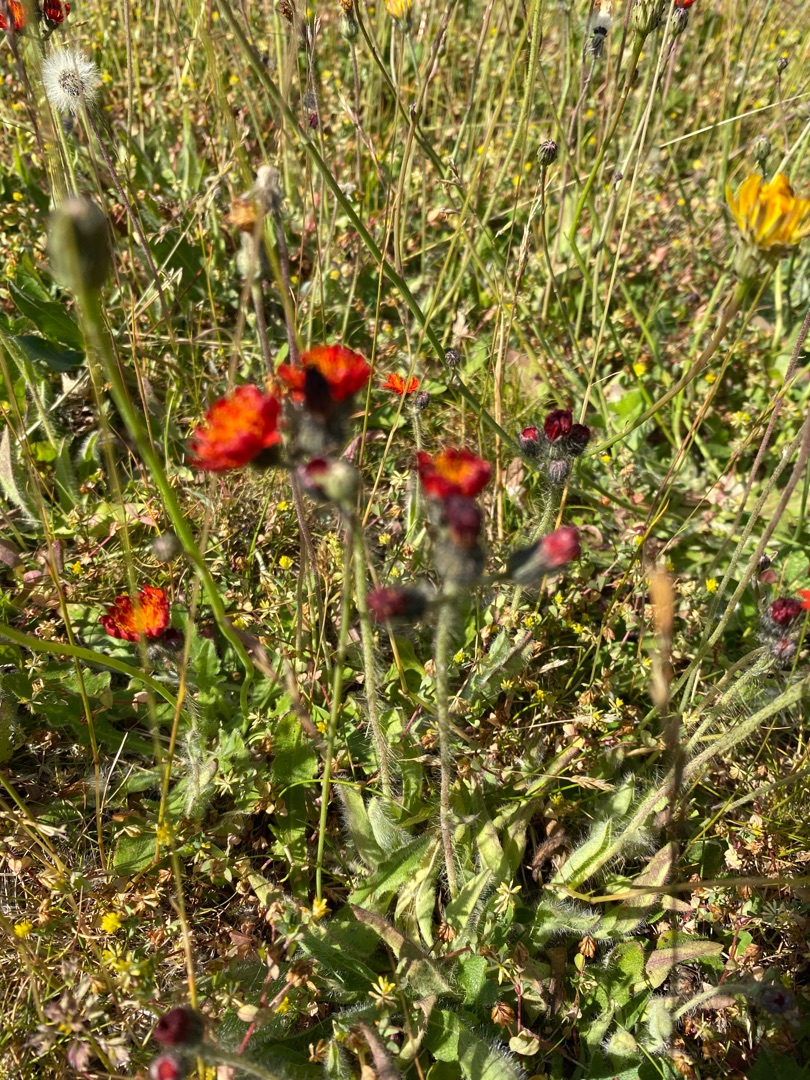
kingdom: Plantae
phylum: Tracheophyta
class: Magnoliopsida
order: Asterales
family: Asteraceae
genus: Pilosella
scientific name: Pilosella aurantiaca
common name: Pomerans-høgeurt
